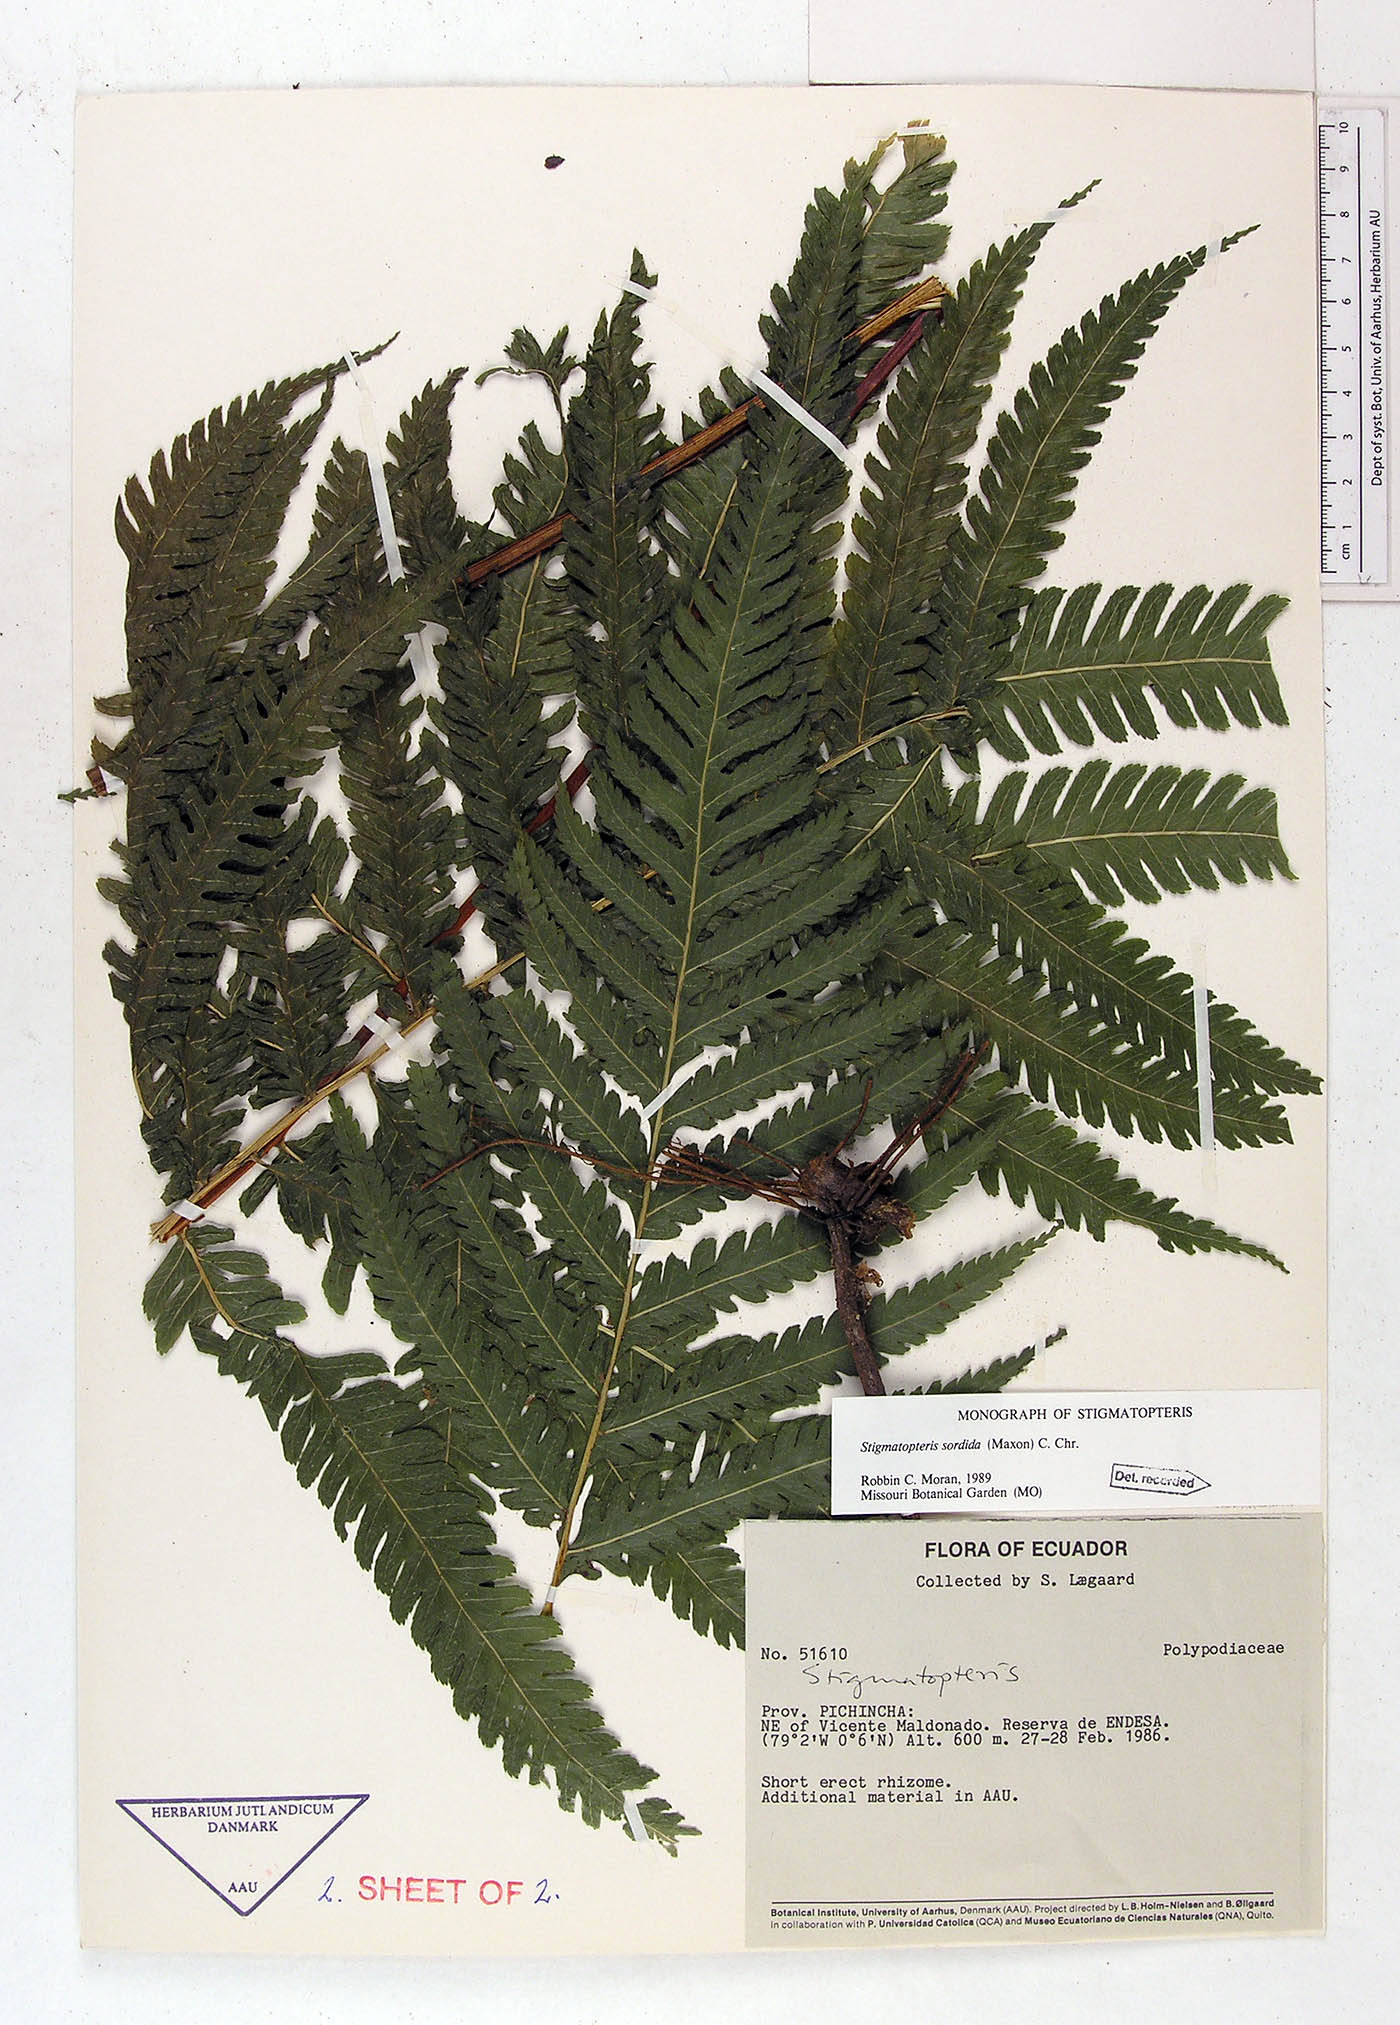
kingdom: Plantae
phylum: Tracheophyta
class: Polypodiopsida
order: Polypodiales
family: Dryopteridaceae
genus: Stigmatopteris
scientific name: Stigmatopteris sordida
